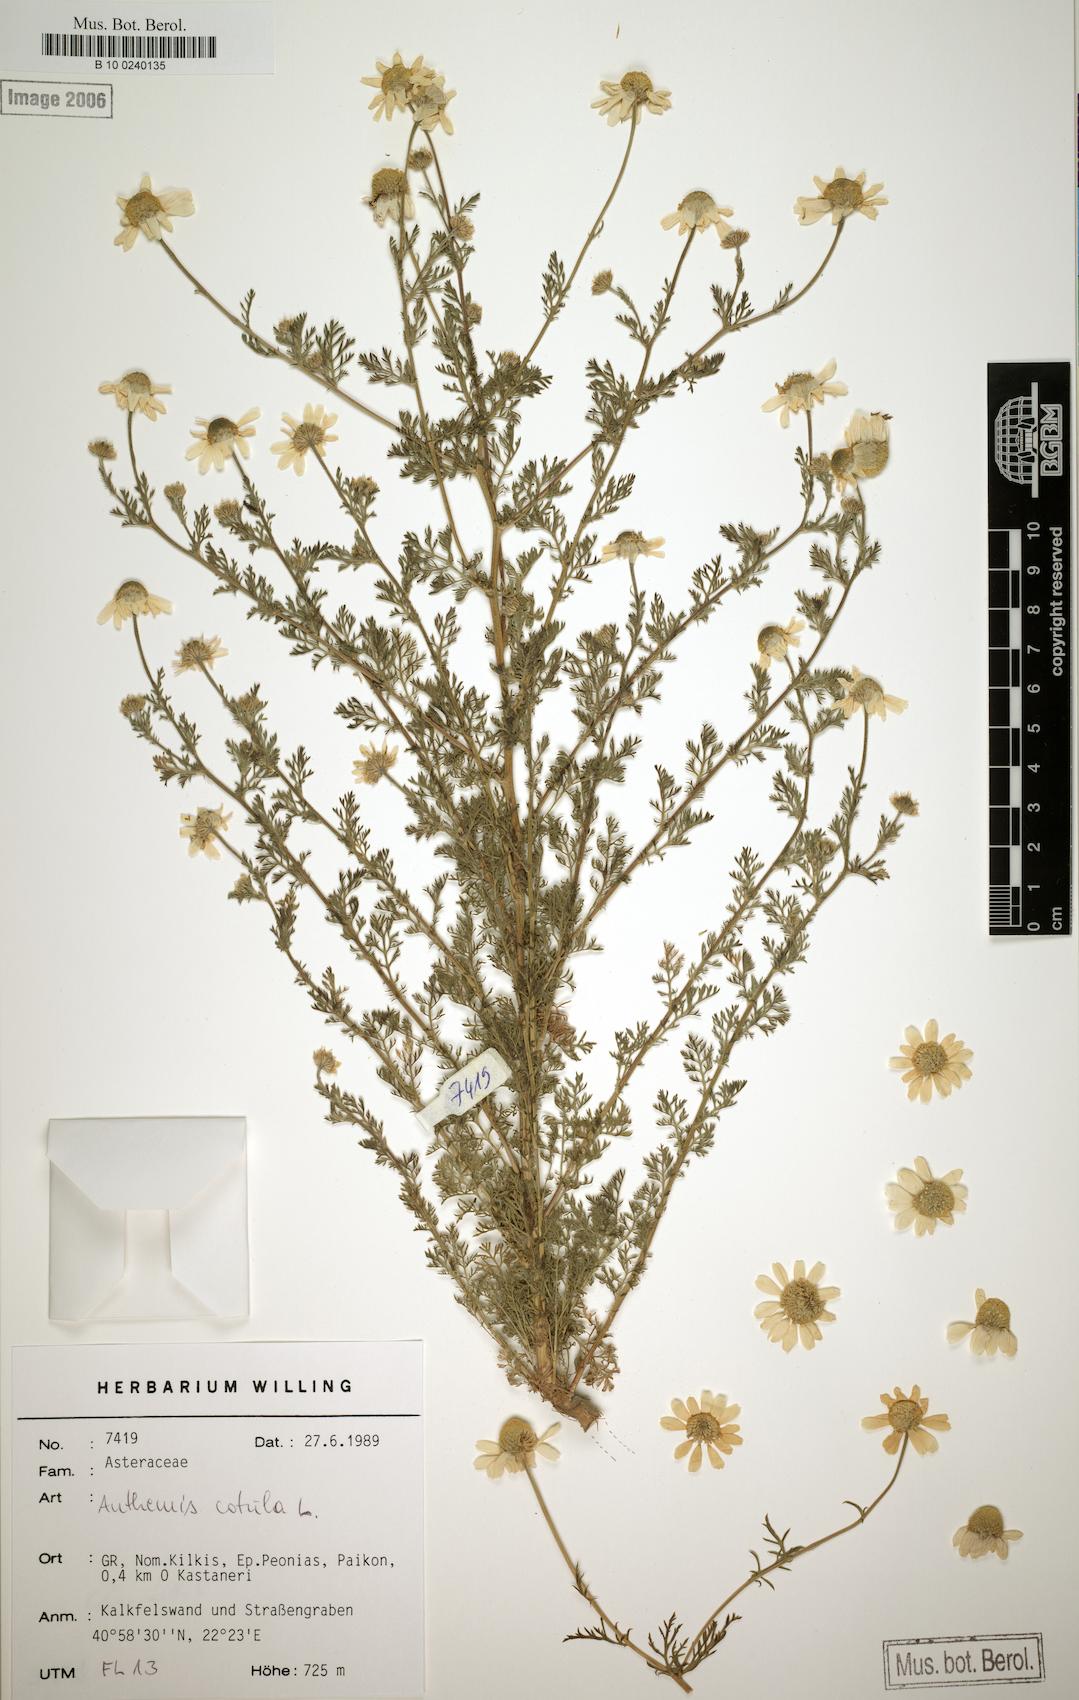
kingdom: Plantae
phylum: Tracheophyta
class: Magnoliopsida
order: Asterales
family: Asteraceae
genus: Anthemis
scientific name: Anthemis cotula
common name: Stinking chamomile
